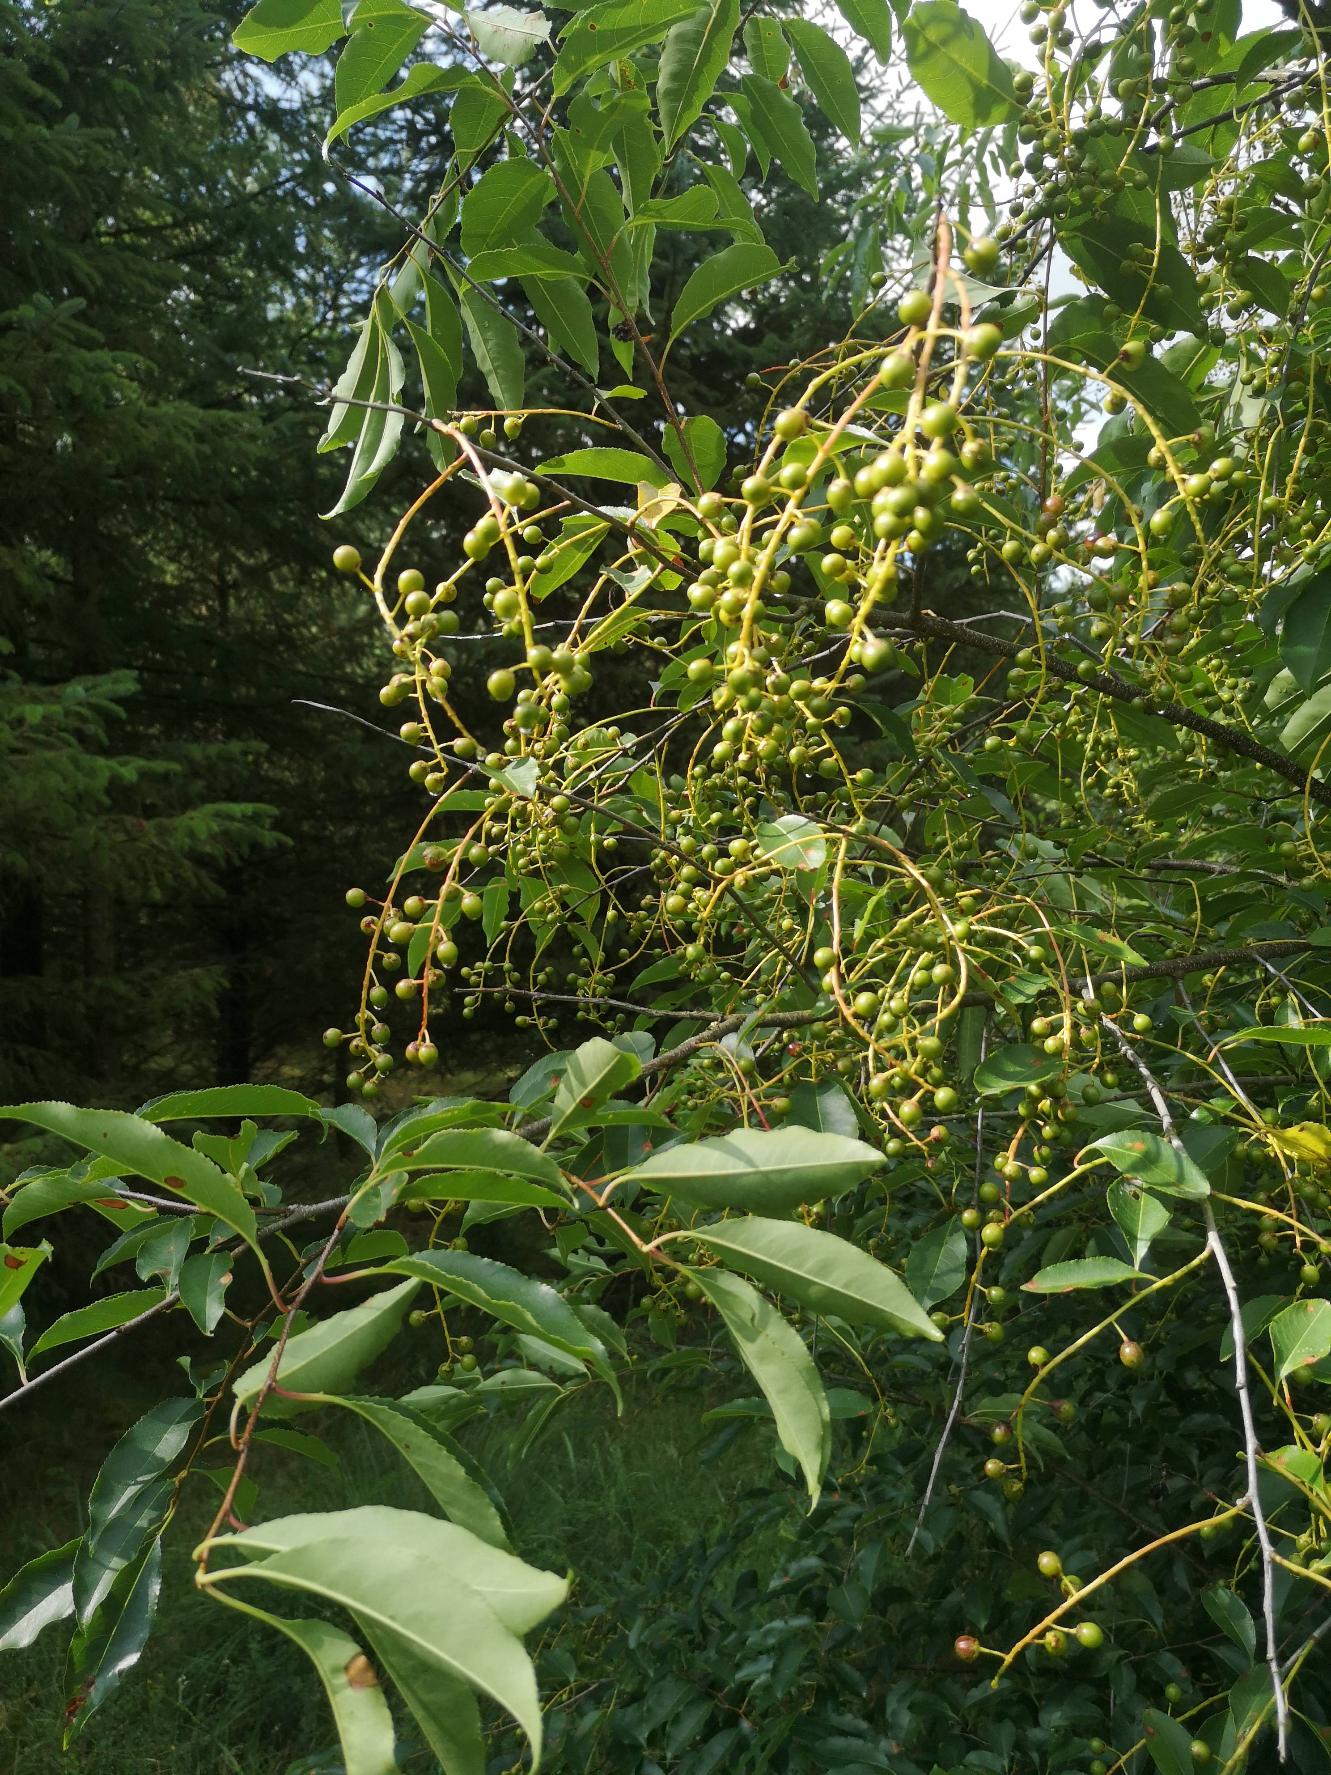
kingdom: Plantae
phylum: Tracheophyta
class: Magnoliopsida
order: Rosales
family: Rosaceae
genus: Prunus
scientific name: Prunus serotina
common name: Glansbladet hæg
